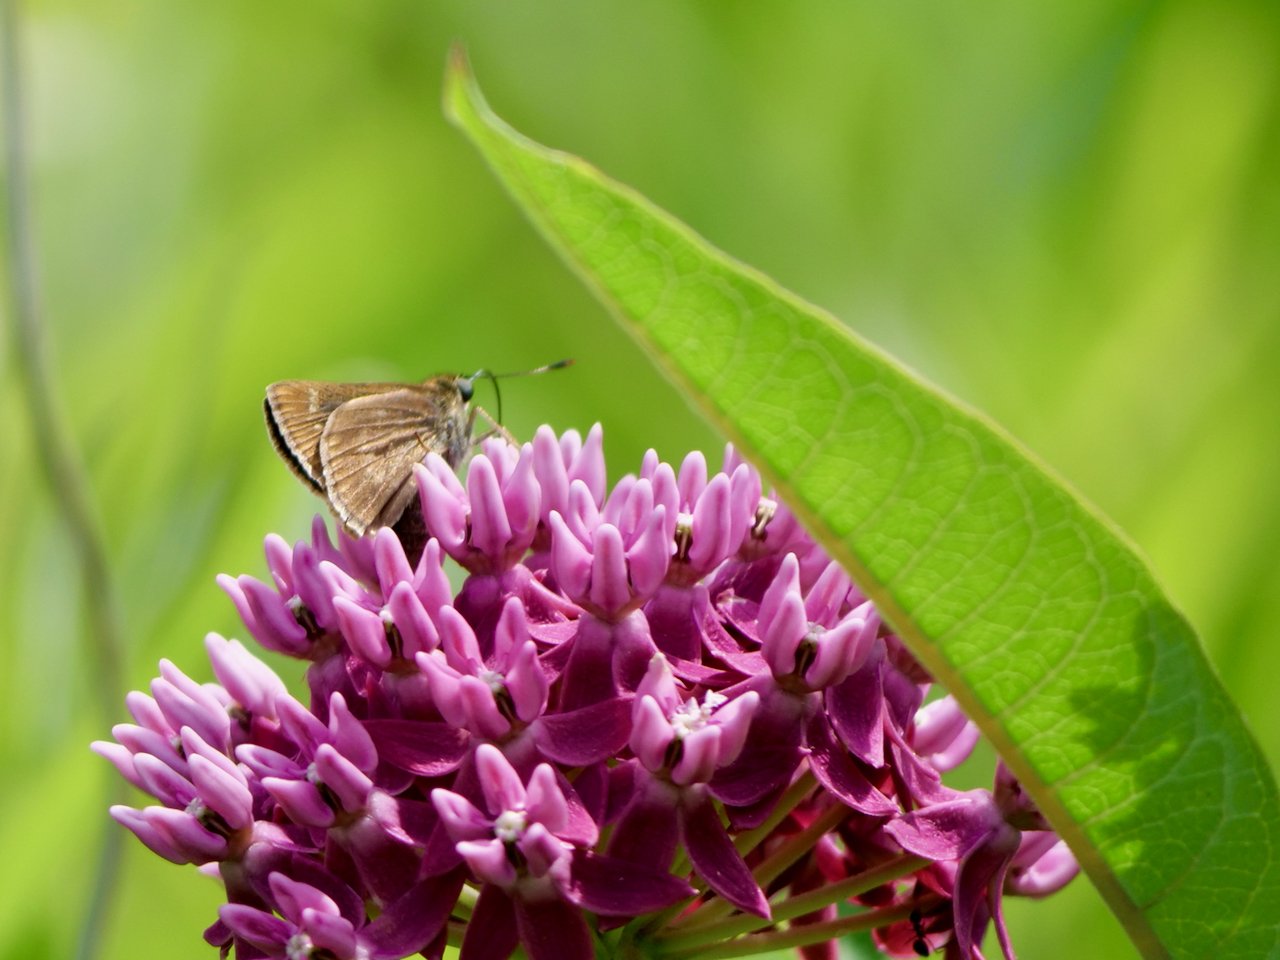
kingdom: Animalia
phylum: Arthropoda
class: Insecta
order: Lepidoptera
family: Hesperiidae
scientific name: Hesperiidae
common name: Skippers
